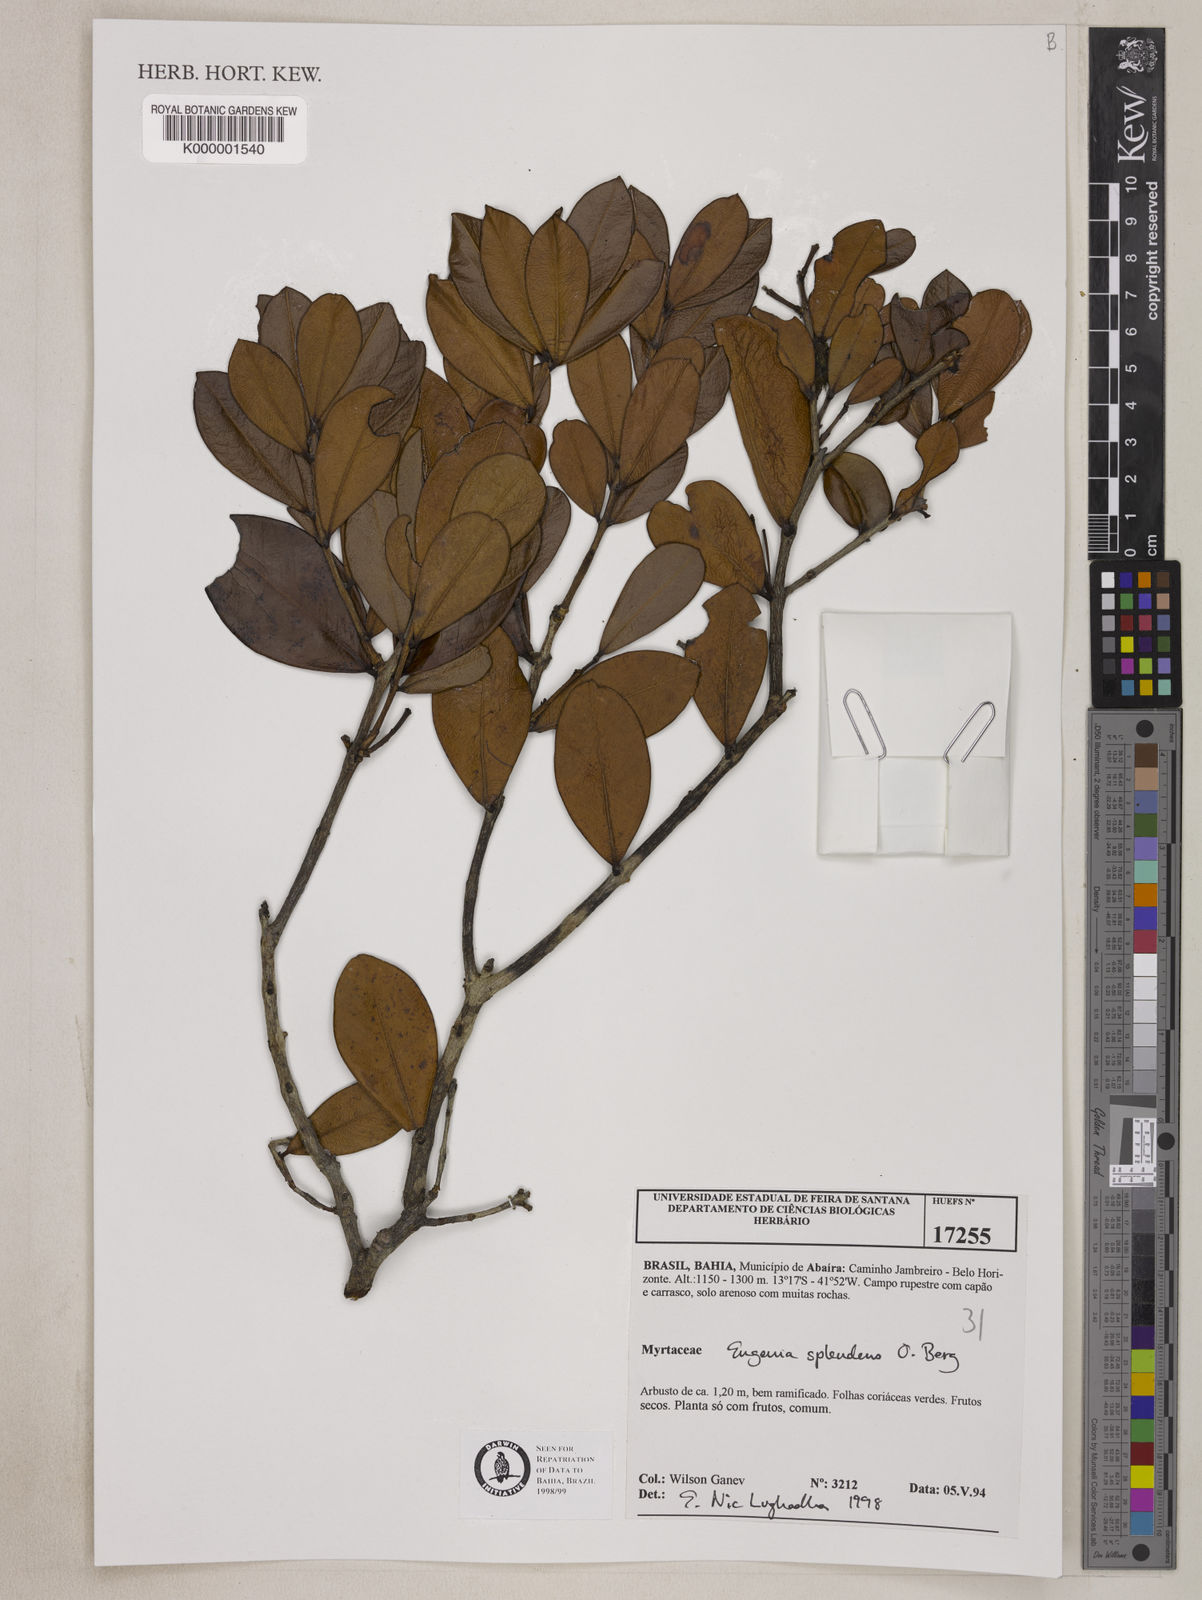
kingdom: Plantae
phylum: Tracheophyta
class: Magnoliopsida
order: Myrtales
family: Myrtaceae
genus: Eugenia
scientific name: Eugenia splendens
